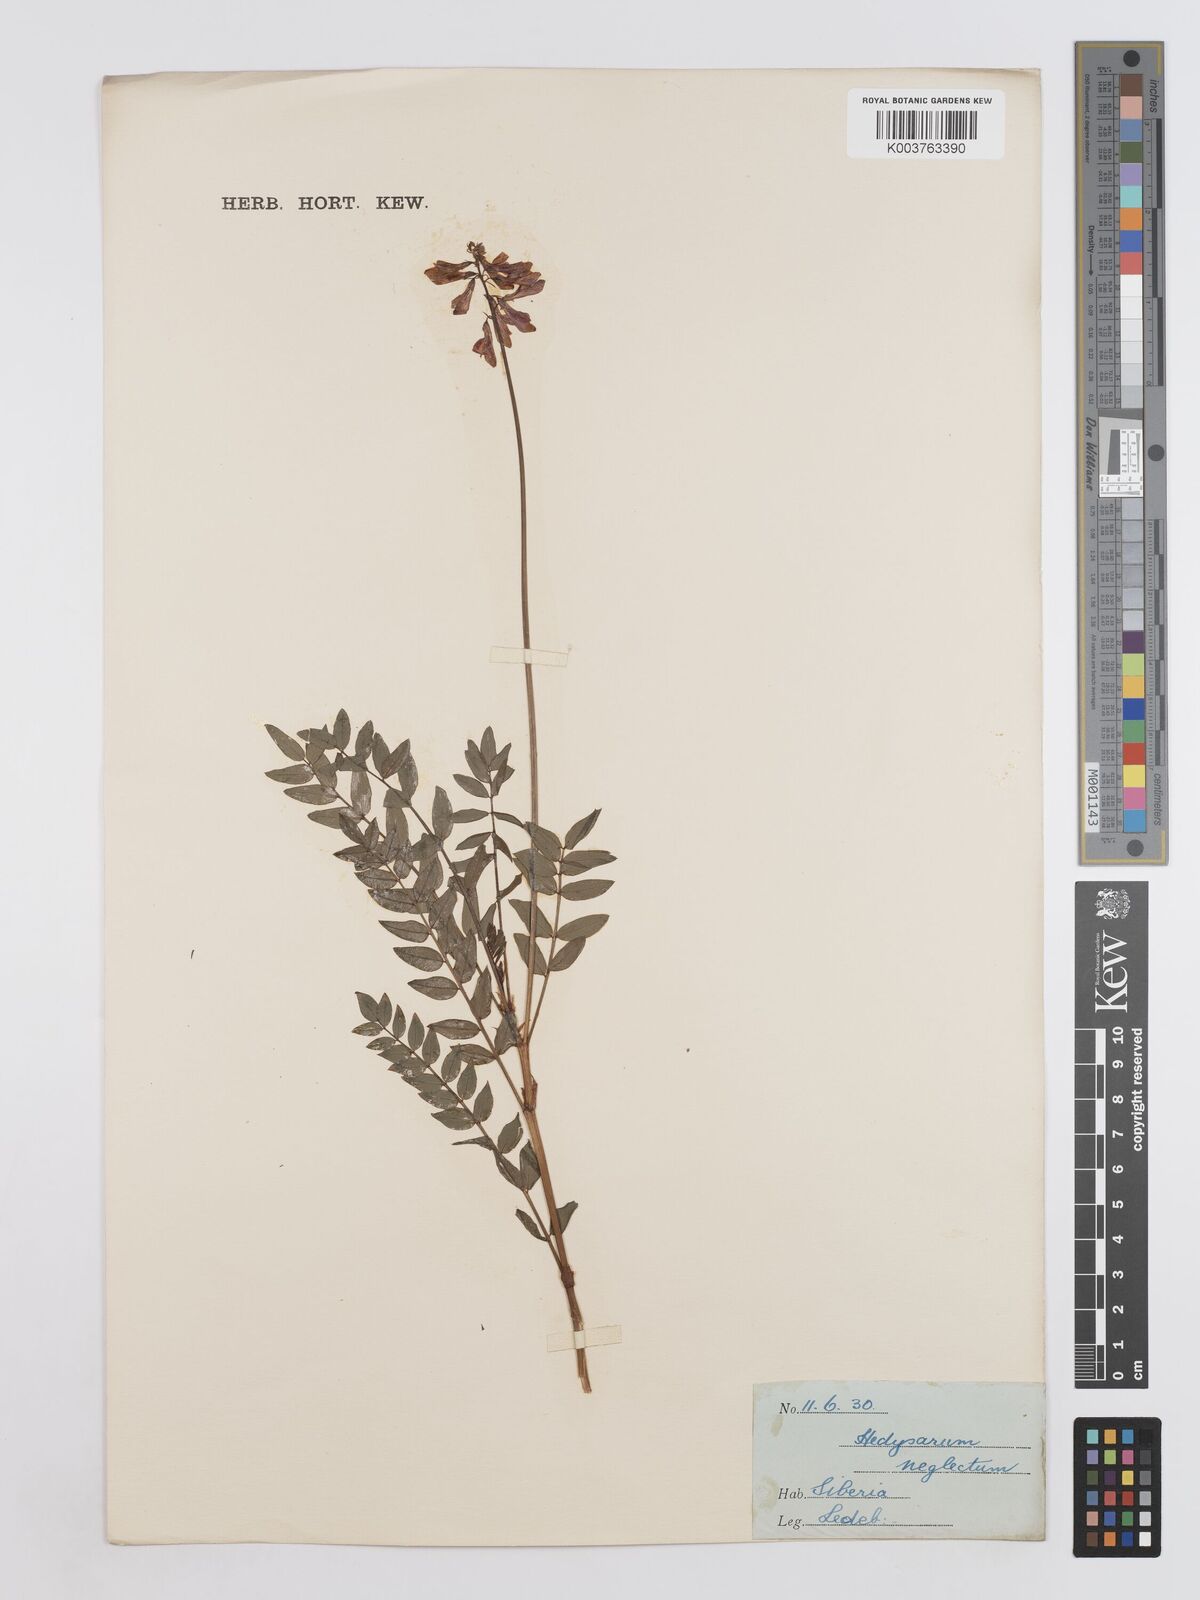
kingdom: Plantae
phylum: Tracheophyta
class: Magnoliopsida
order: Fabales
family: Fabaceae
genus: Hedysarum
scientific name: Hedysarum neglectum
